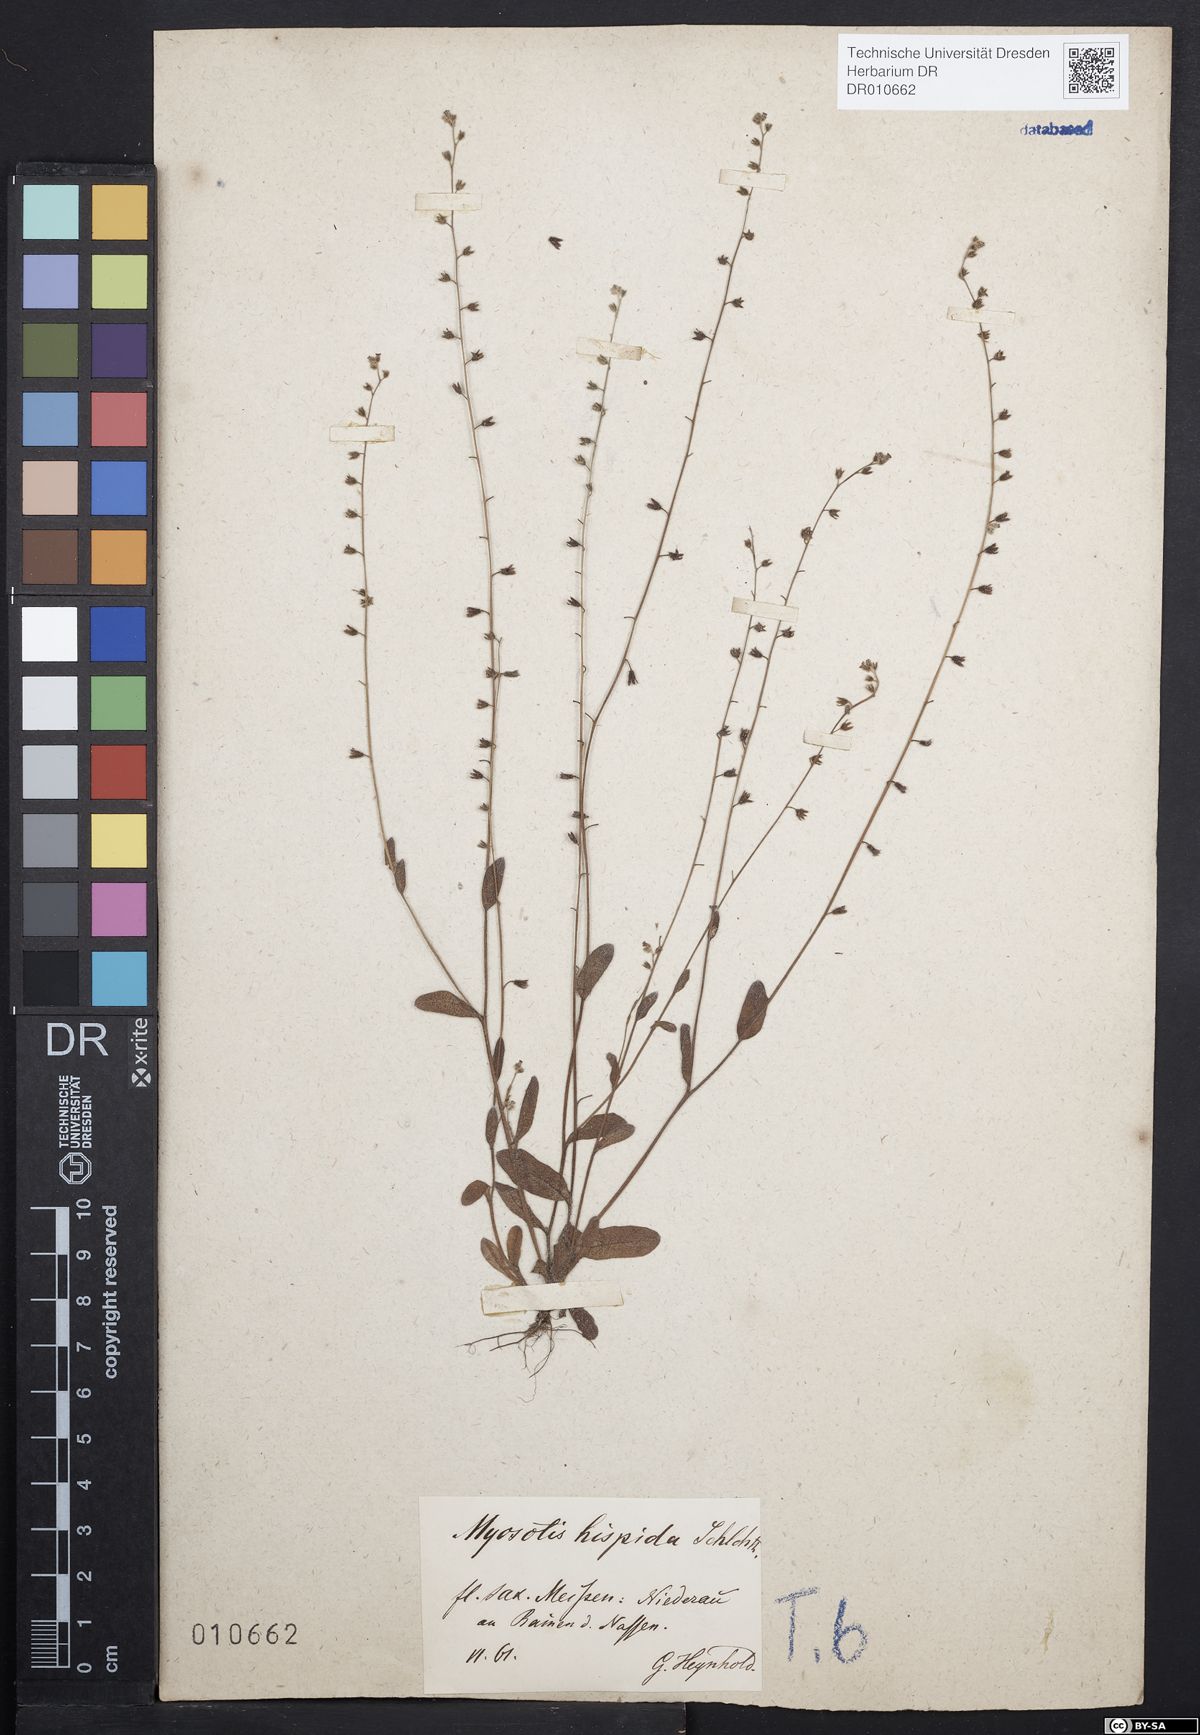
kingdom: Plantae
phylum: Tracheophyta
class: Magnoliopsida
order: Boraginales
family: Boraginaceae
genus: Myosotis
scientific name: Myosotis ramosissima
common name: Early forget-me-not
